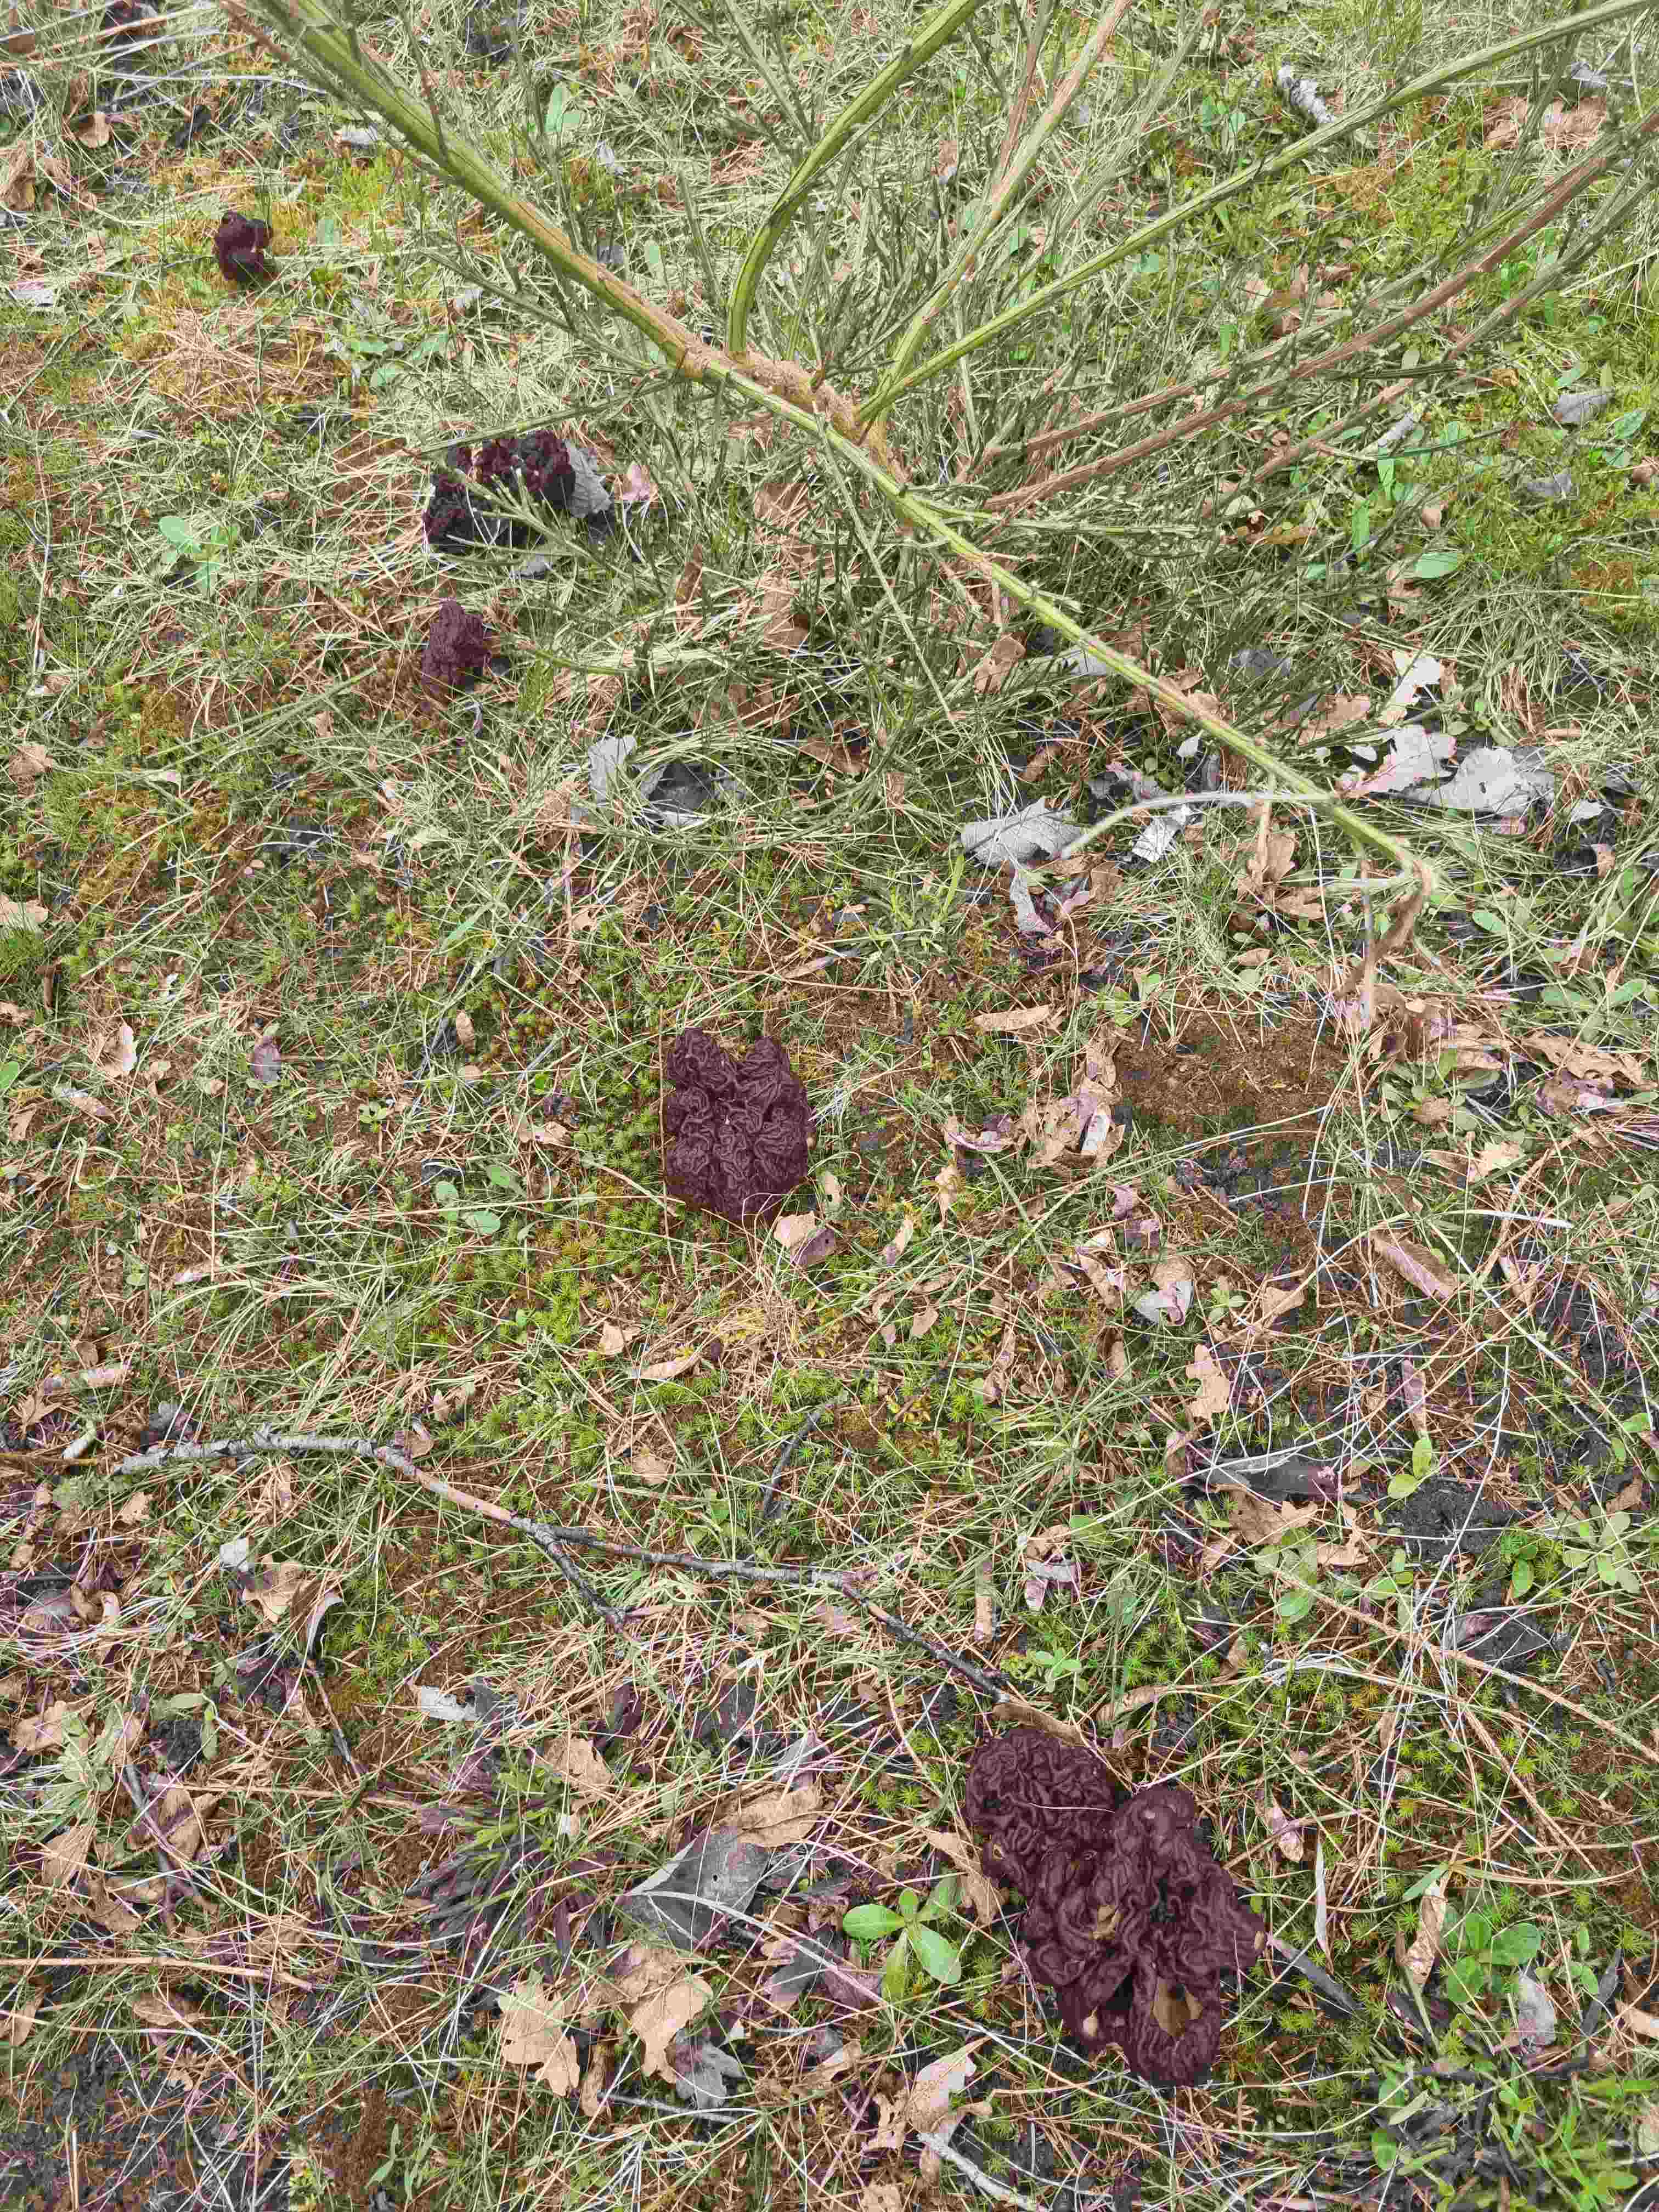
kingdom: Fungi
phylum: Ascomycota
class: Pezizomycetes
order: Pezizales
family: Discinaceae
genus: Gyromitra
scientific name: Gyromitra esculenta
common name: ægte stenmorkel
